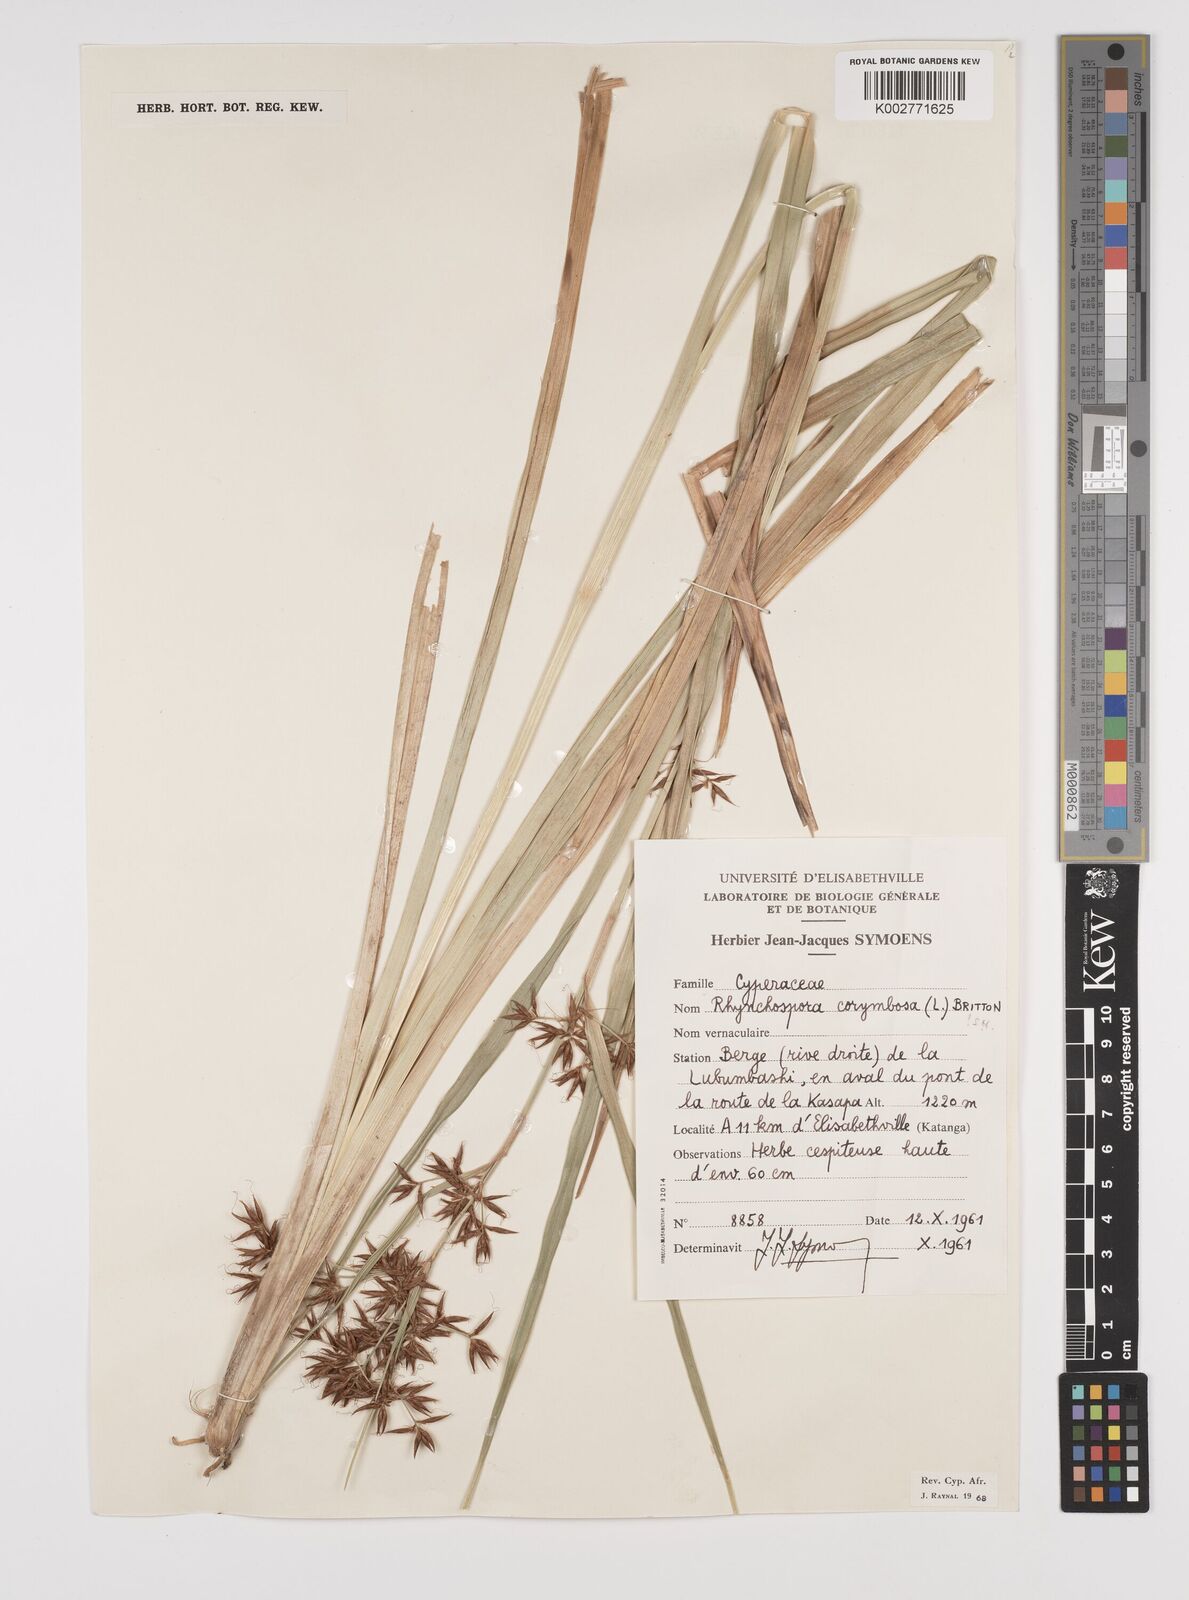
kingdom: Plantae
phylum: Tracheophyta
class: Liliopsida
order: Poales
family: Cyperaceae
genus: Rhynchospora
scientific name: Rhynchospora corymbosa
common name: Golden beak sedge
